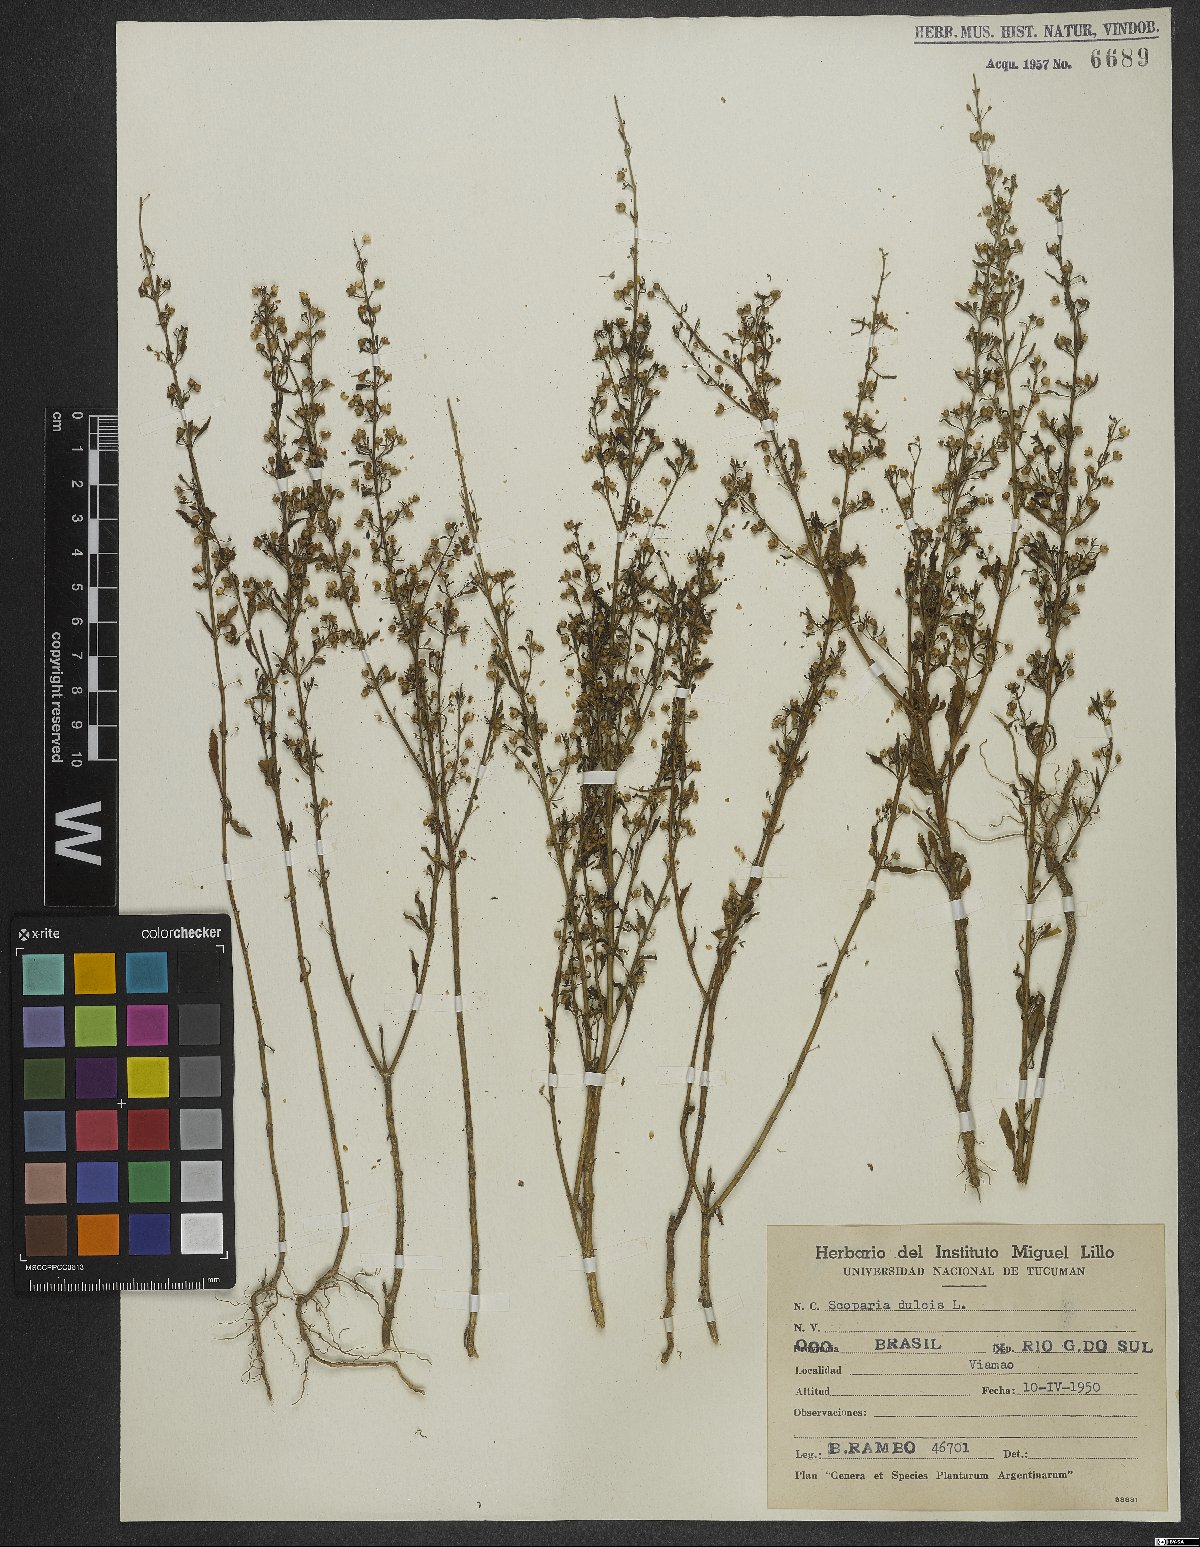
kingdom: Plantae
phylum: Tracheophyta
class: Magnoliopsida
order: Lamiales
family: Plantaginaceae
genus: Scoparia
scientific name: Scoparia dulcis
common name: Scoparia-weed
